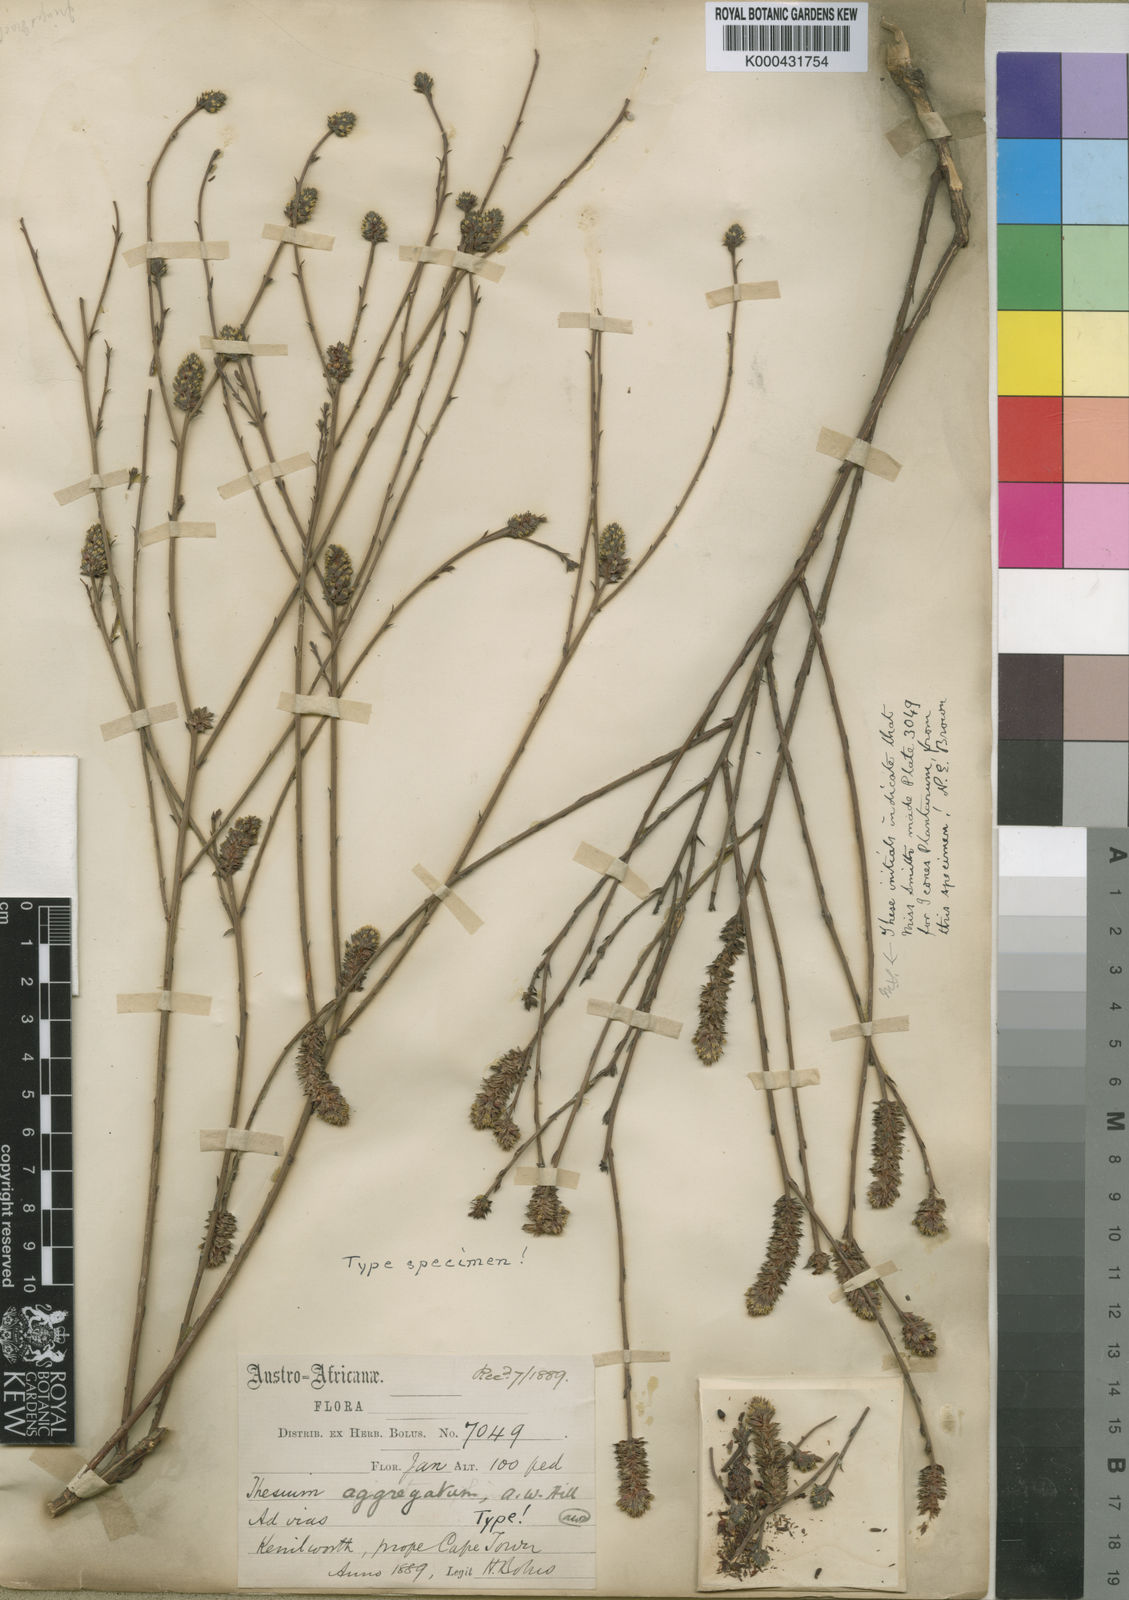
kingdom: Plantae
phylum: Tracheophyta
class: Magnoliopsida
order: Santalales
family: Thesiaceae
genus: Thesium
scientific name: Thesium aggregatum
